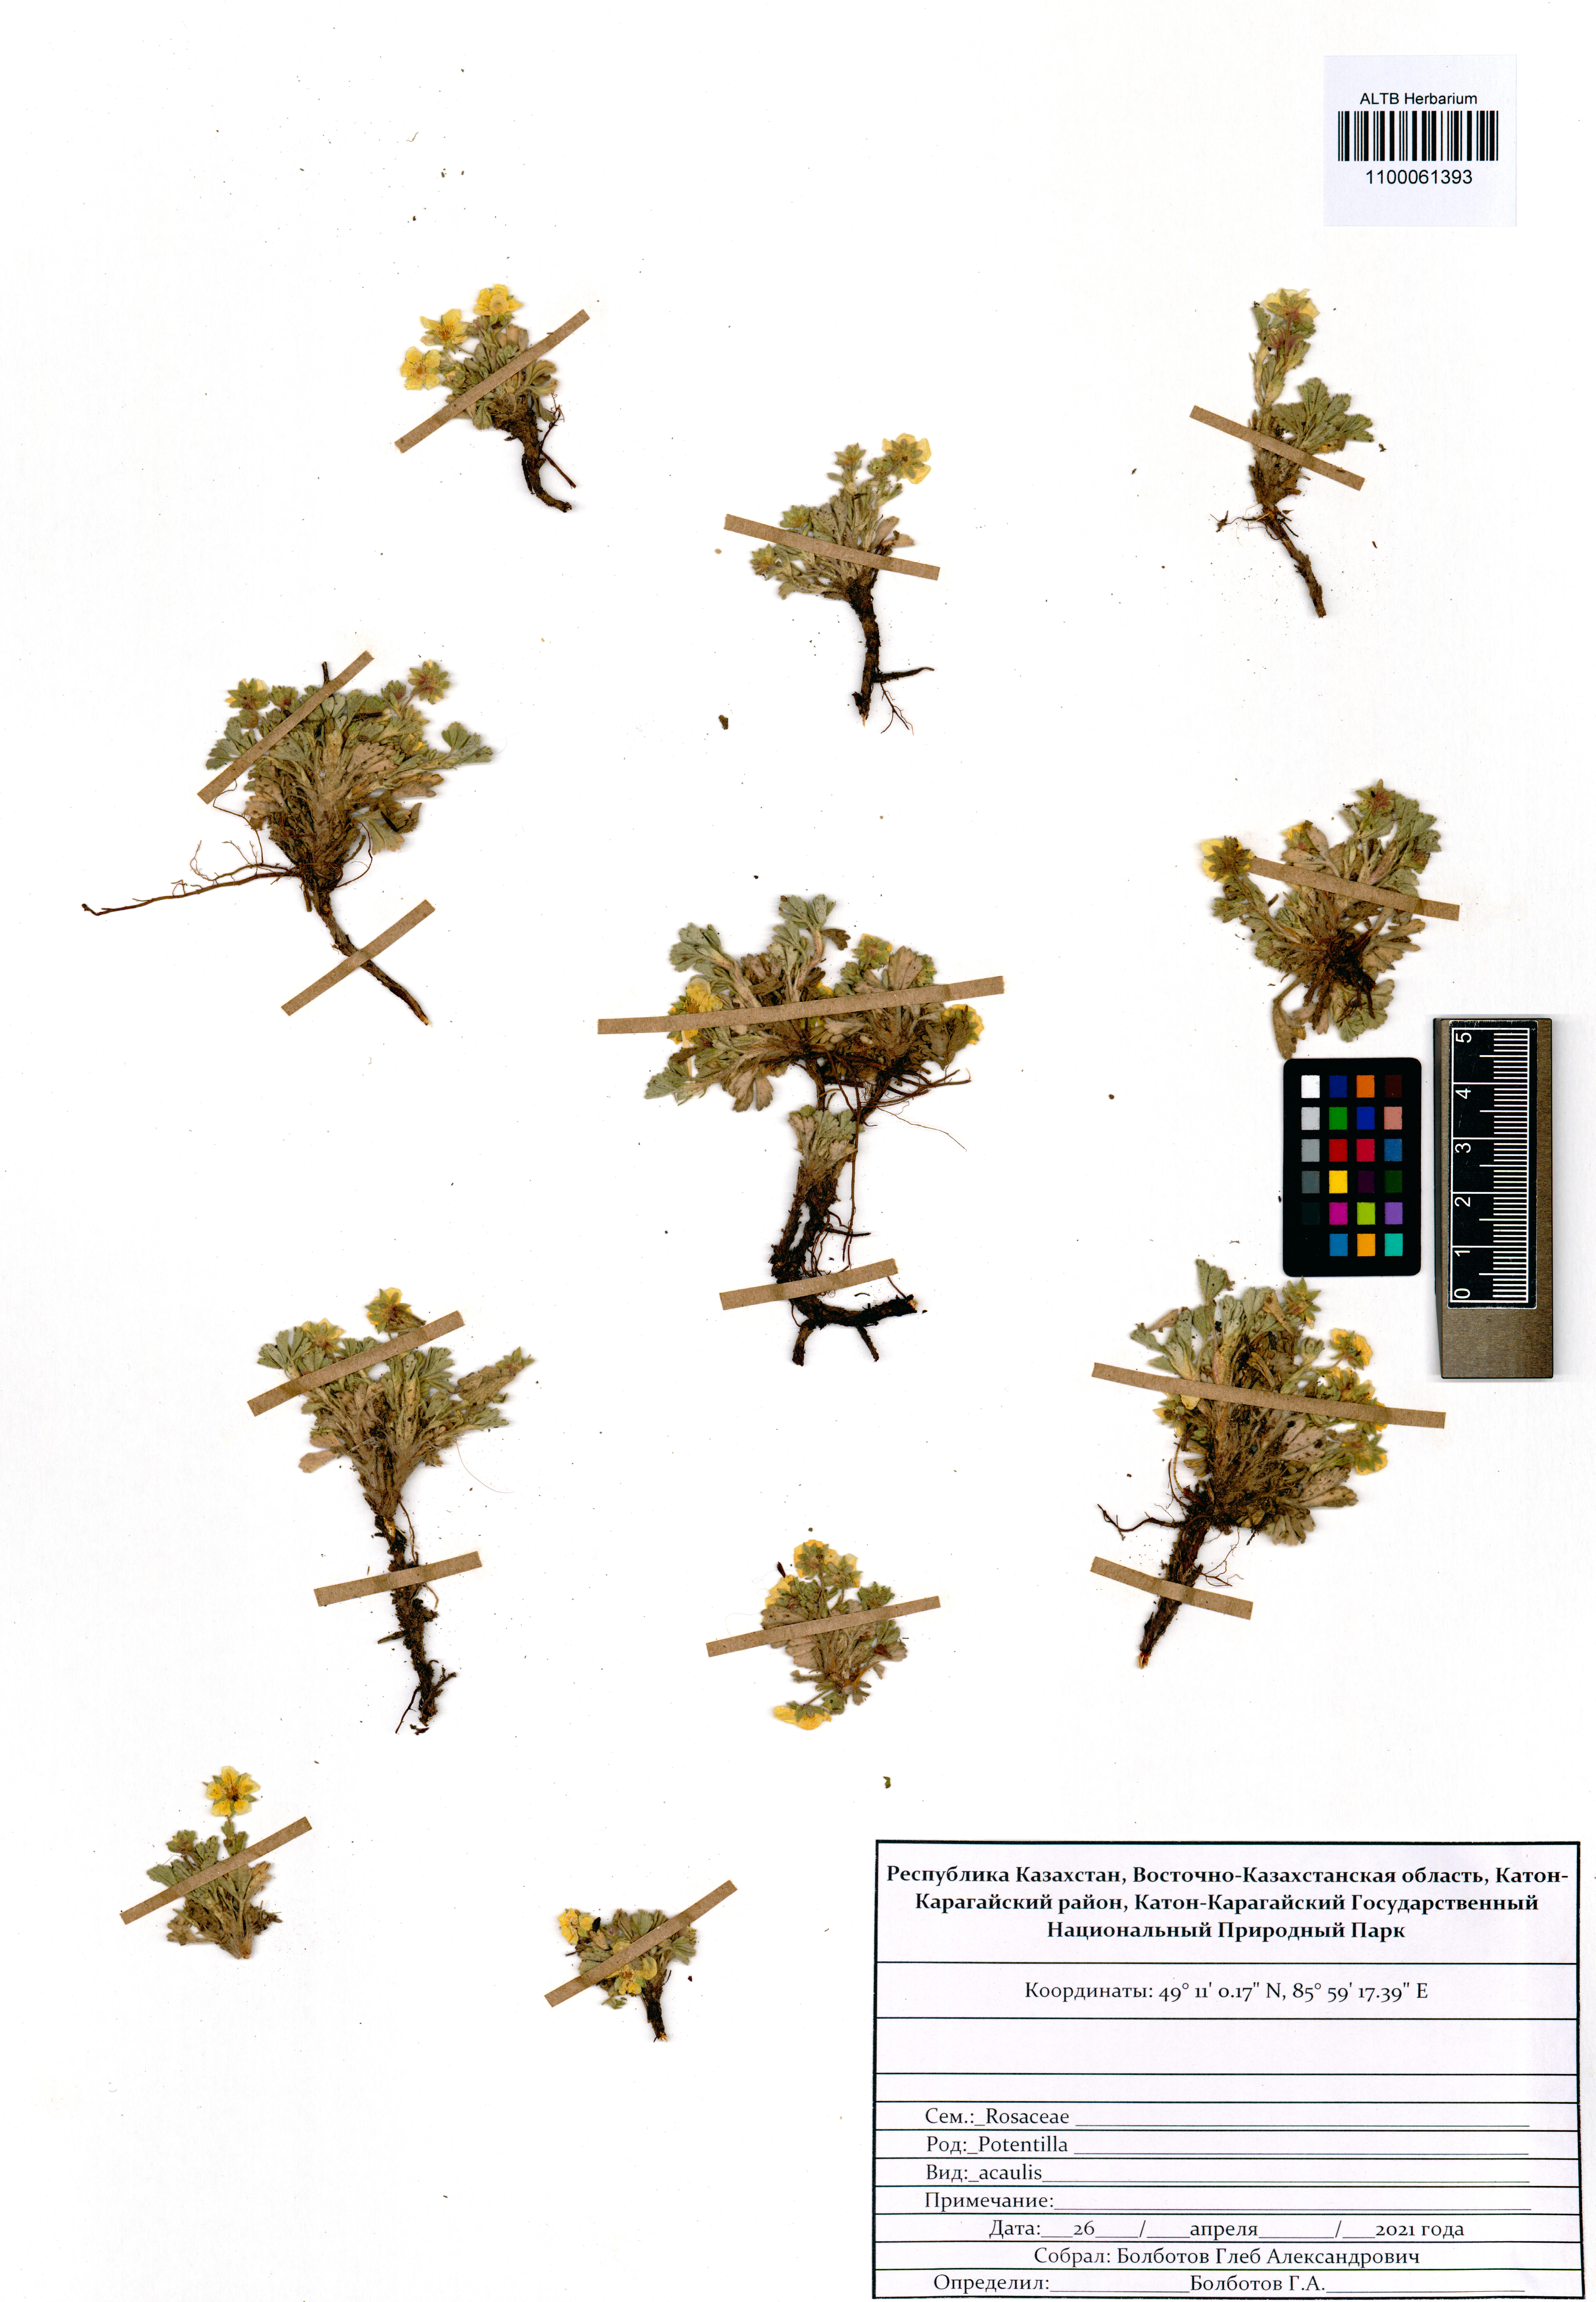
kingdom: Plantae
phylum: Tracheophyta
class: Magnoliopsida
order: Rosales
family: Rosaceae
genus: Potentilla
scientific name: Potentilla acaulis
